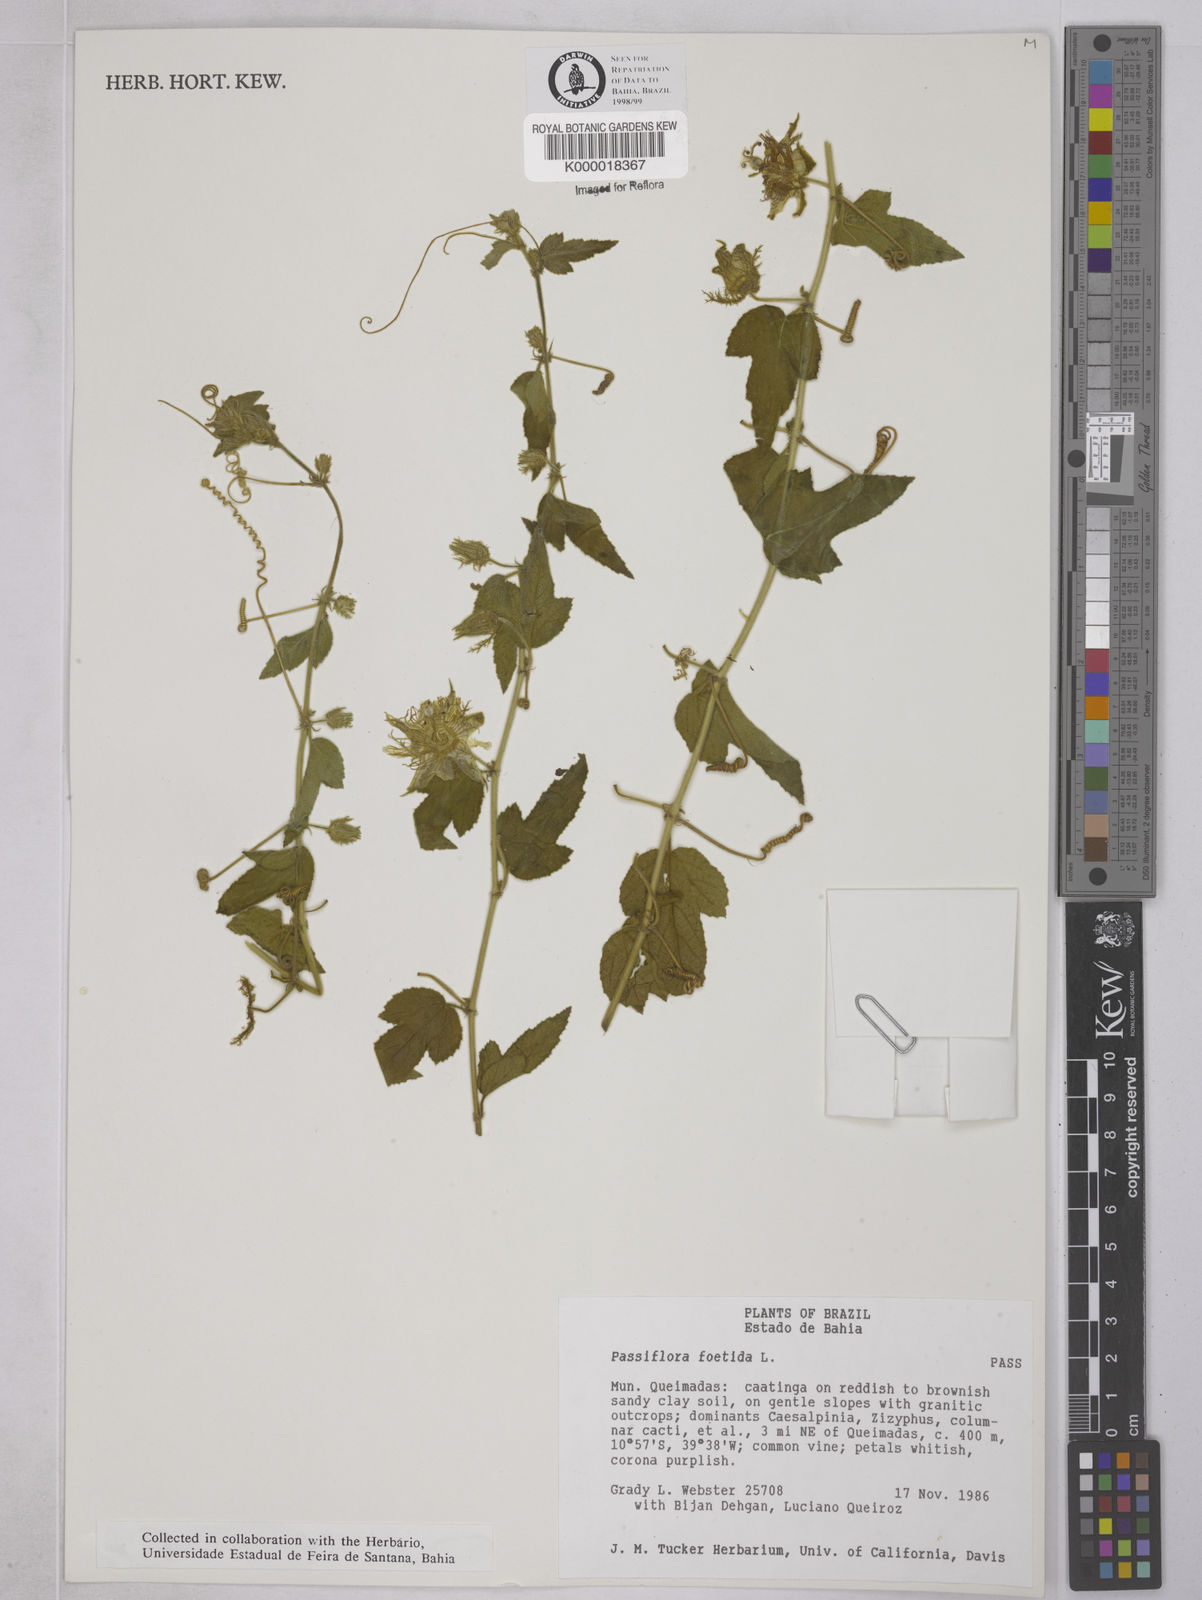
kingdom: Plantae
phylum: Tracheophyta
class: Magnoliopsida
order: Malpighiales
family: Passifloraceae
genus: Passiflora
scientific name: Passiflora foetida
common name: Fetid passionflower
